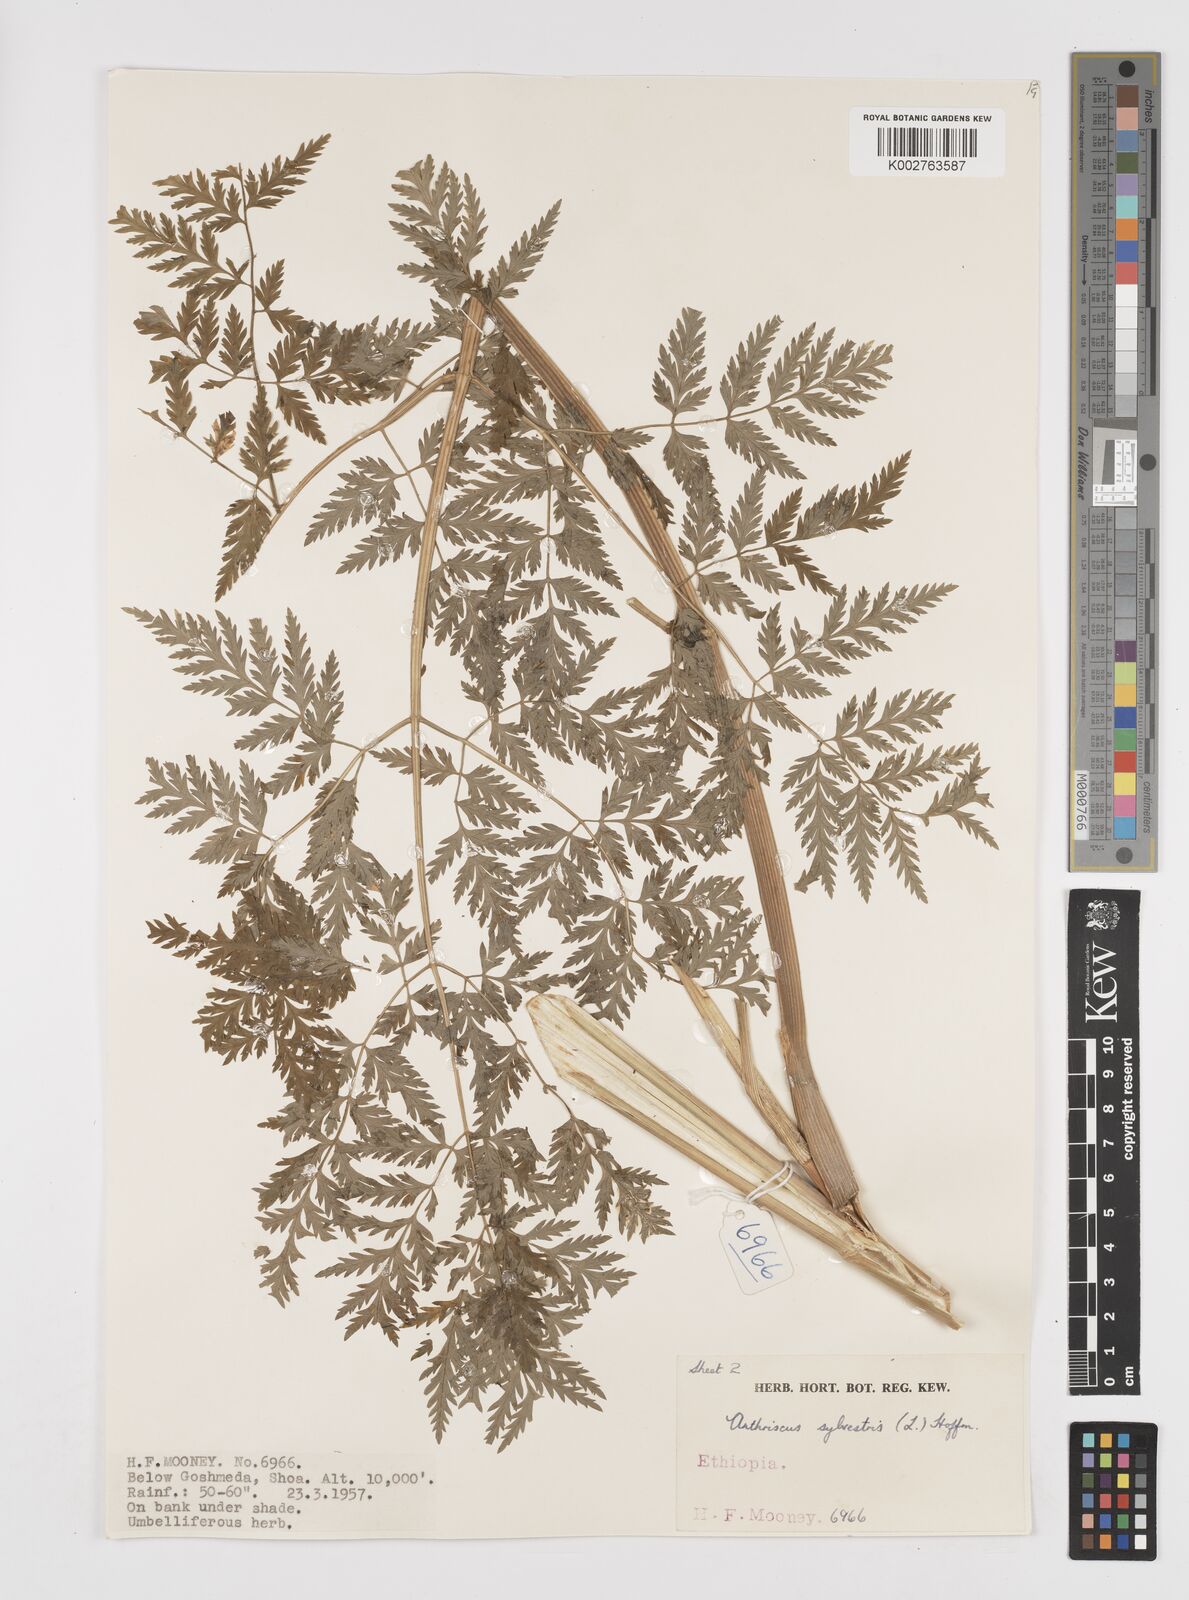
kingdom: Plantae
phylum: Tracheophyta
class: Magnoliopsida
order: Apiales
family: Apiaceae
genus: Anthriscus
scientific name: Anthriscus sylvestris
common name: Cow parsley
